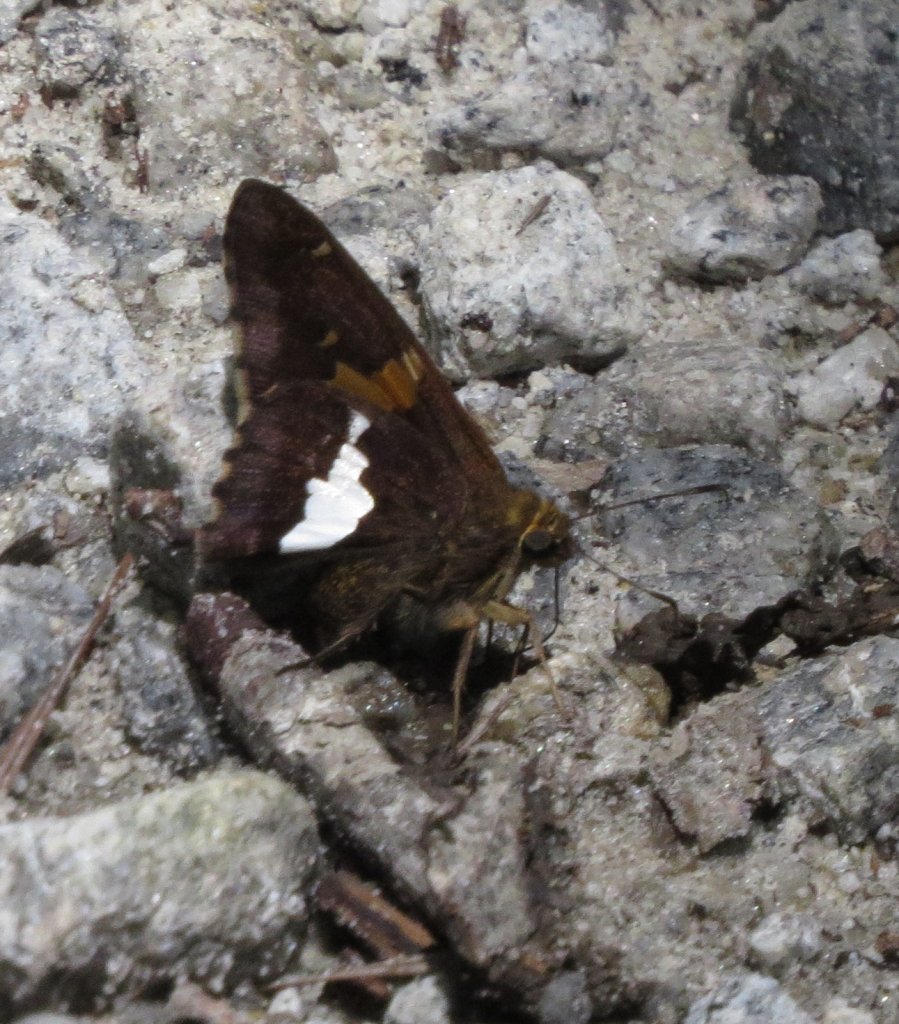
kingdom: Animalia
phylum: Arthropoda
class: Insecta
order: Lepidoptera
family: Hesperiidae
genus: Epargyreus
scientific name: Epargyreus clarus
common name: Silver-spotted Skipper
